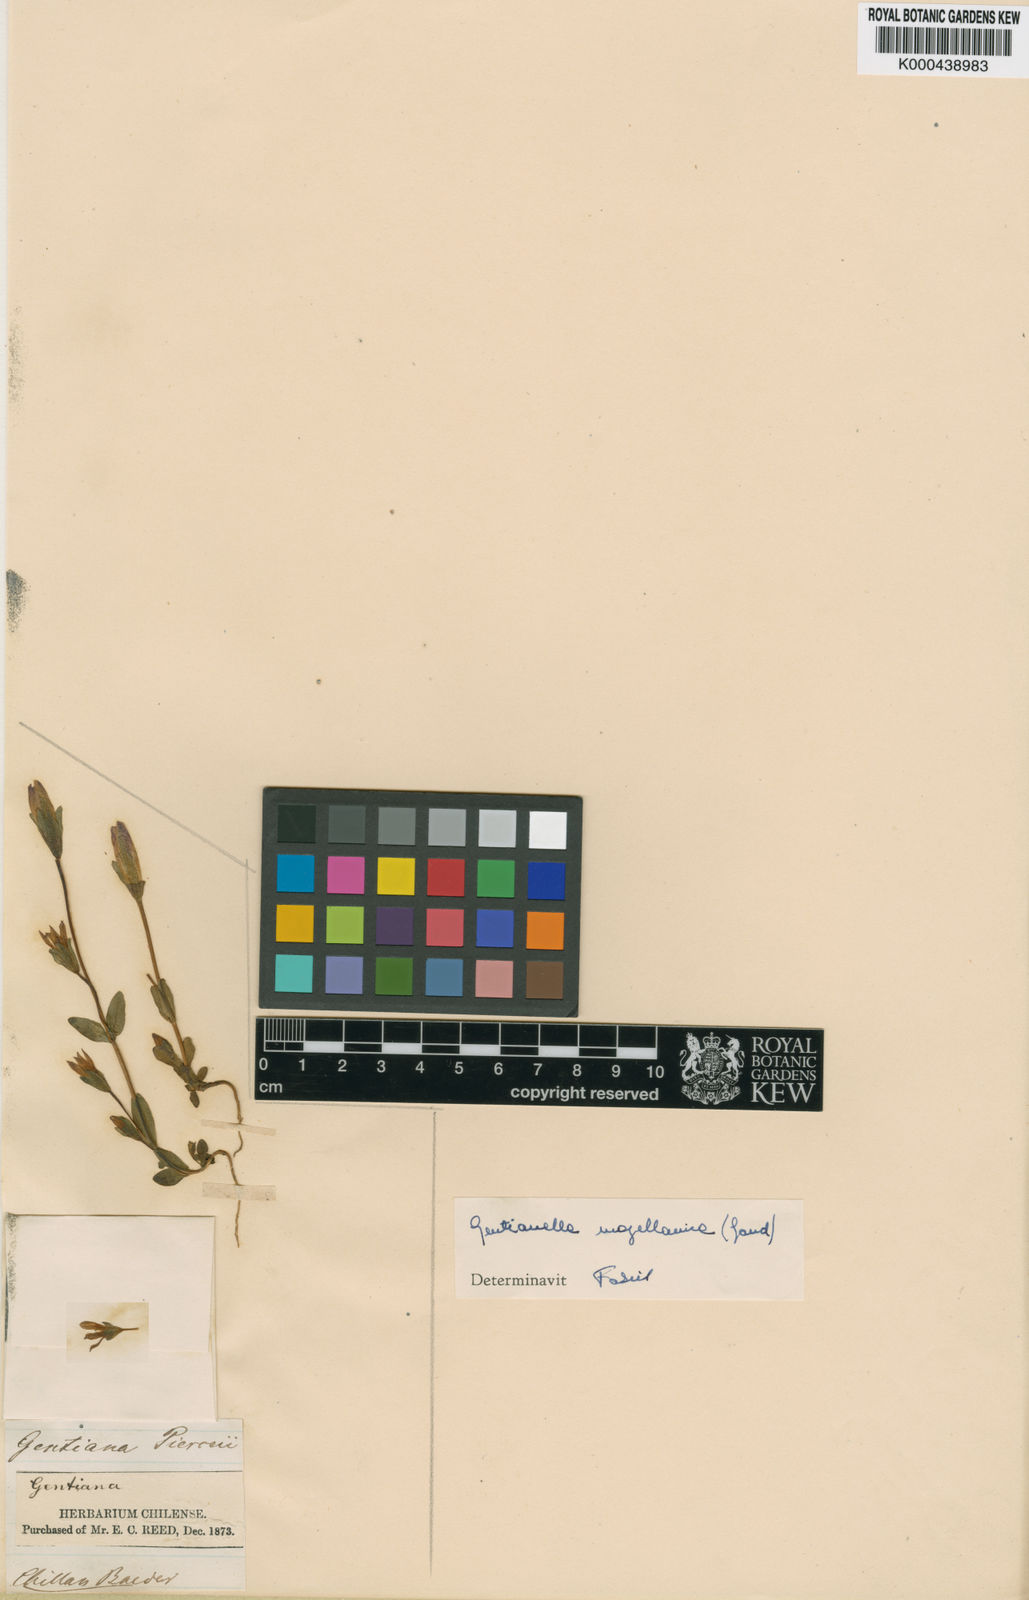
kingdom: Plantae
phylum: Tracheophyta
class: Magnoliopsida
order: Gentianales
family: Gentianaceae
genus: Gentianella
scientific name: Gentianella
